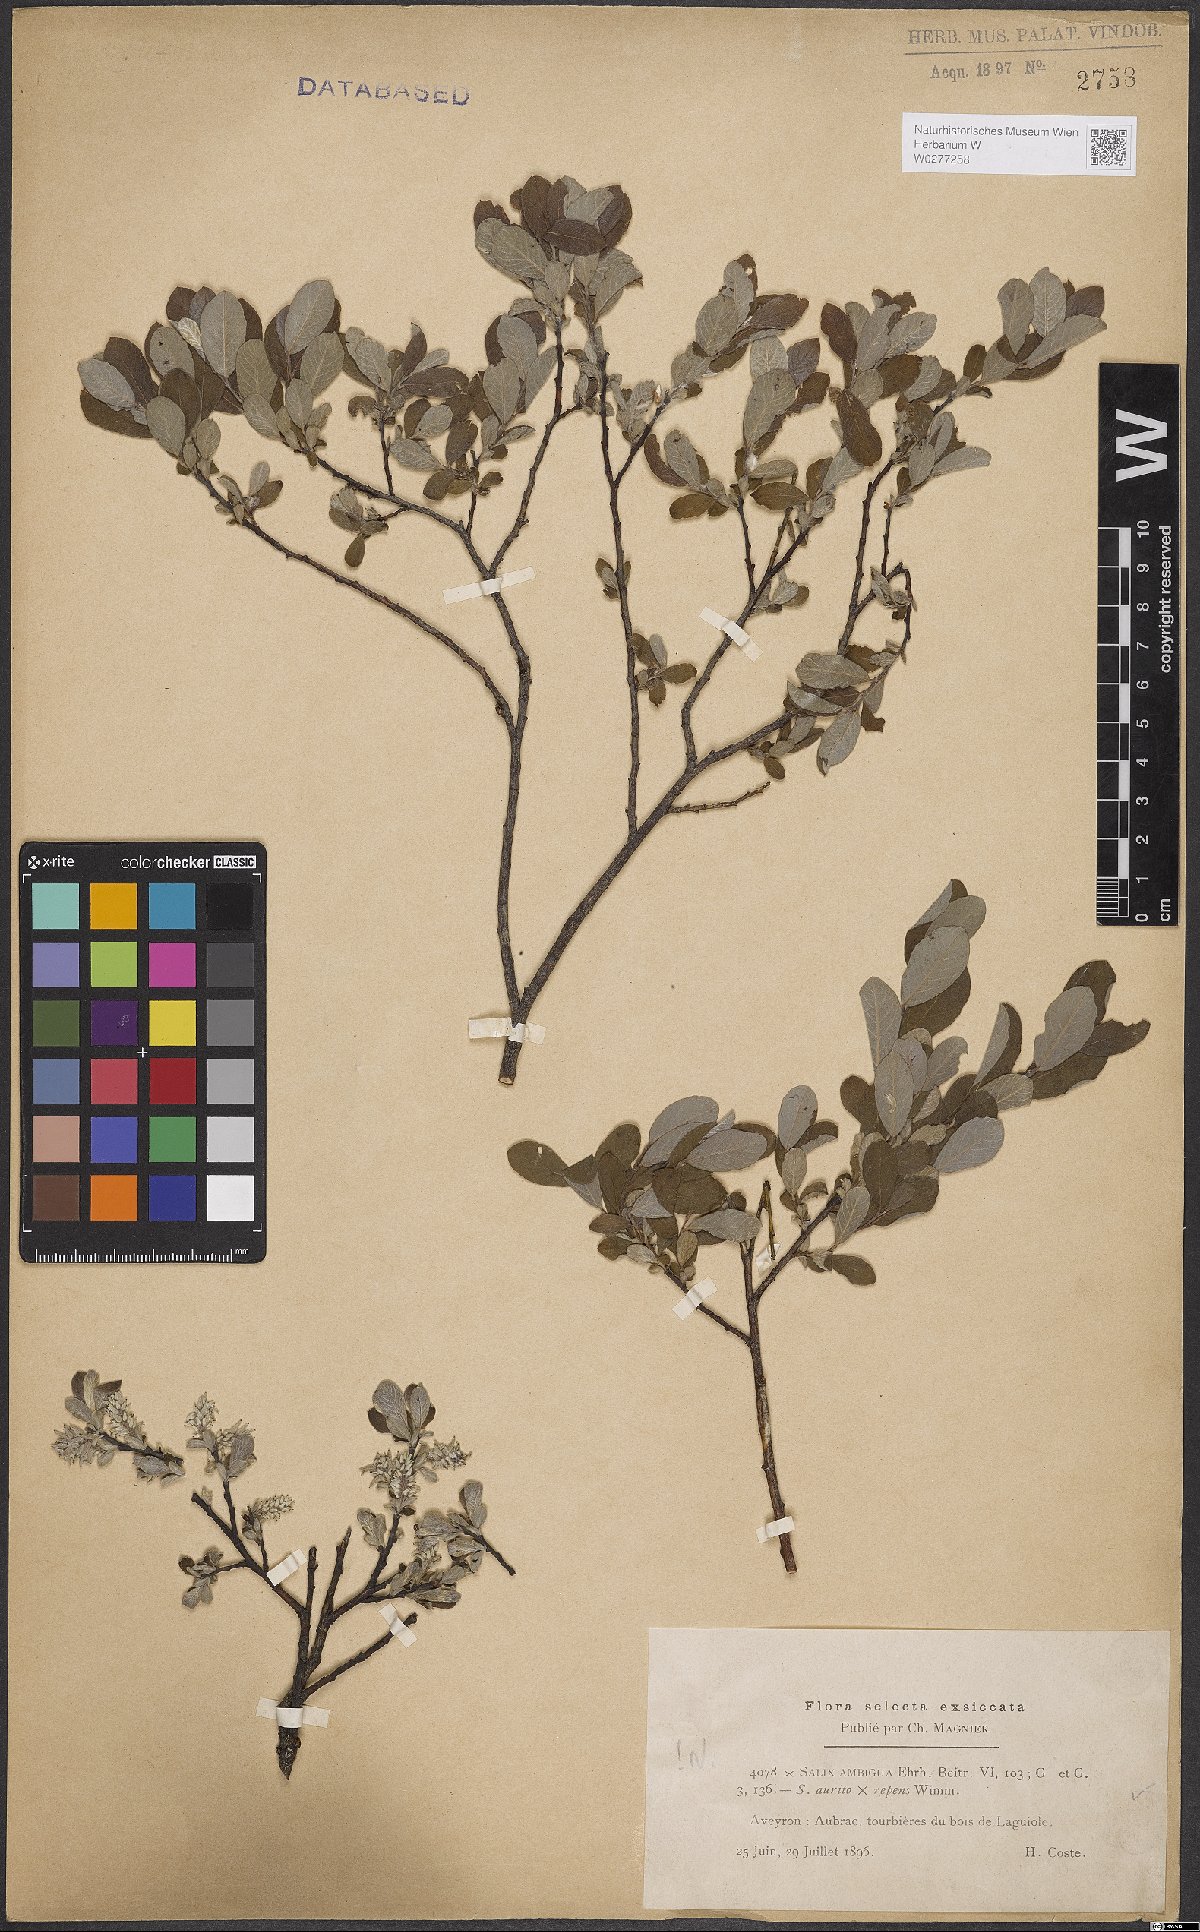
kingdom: Plantae
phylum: Tracheophyta
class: Magnoliopsida
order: Malpighiales
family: Salicaceae
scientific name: Salicaceae
